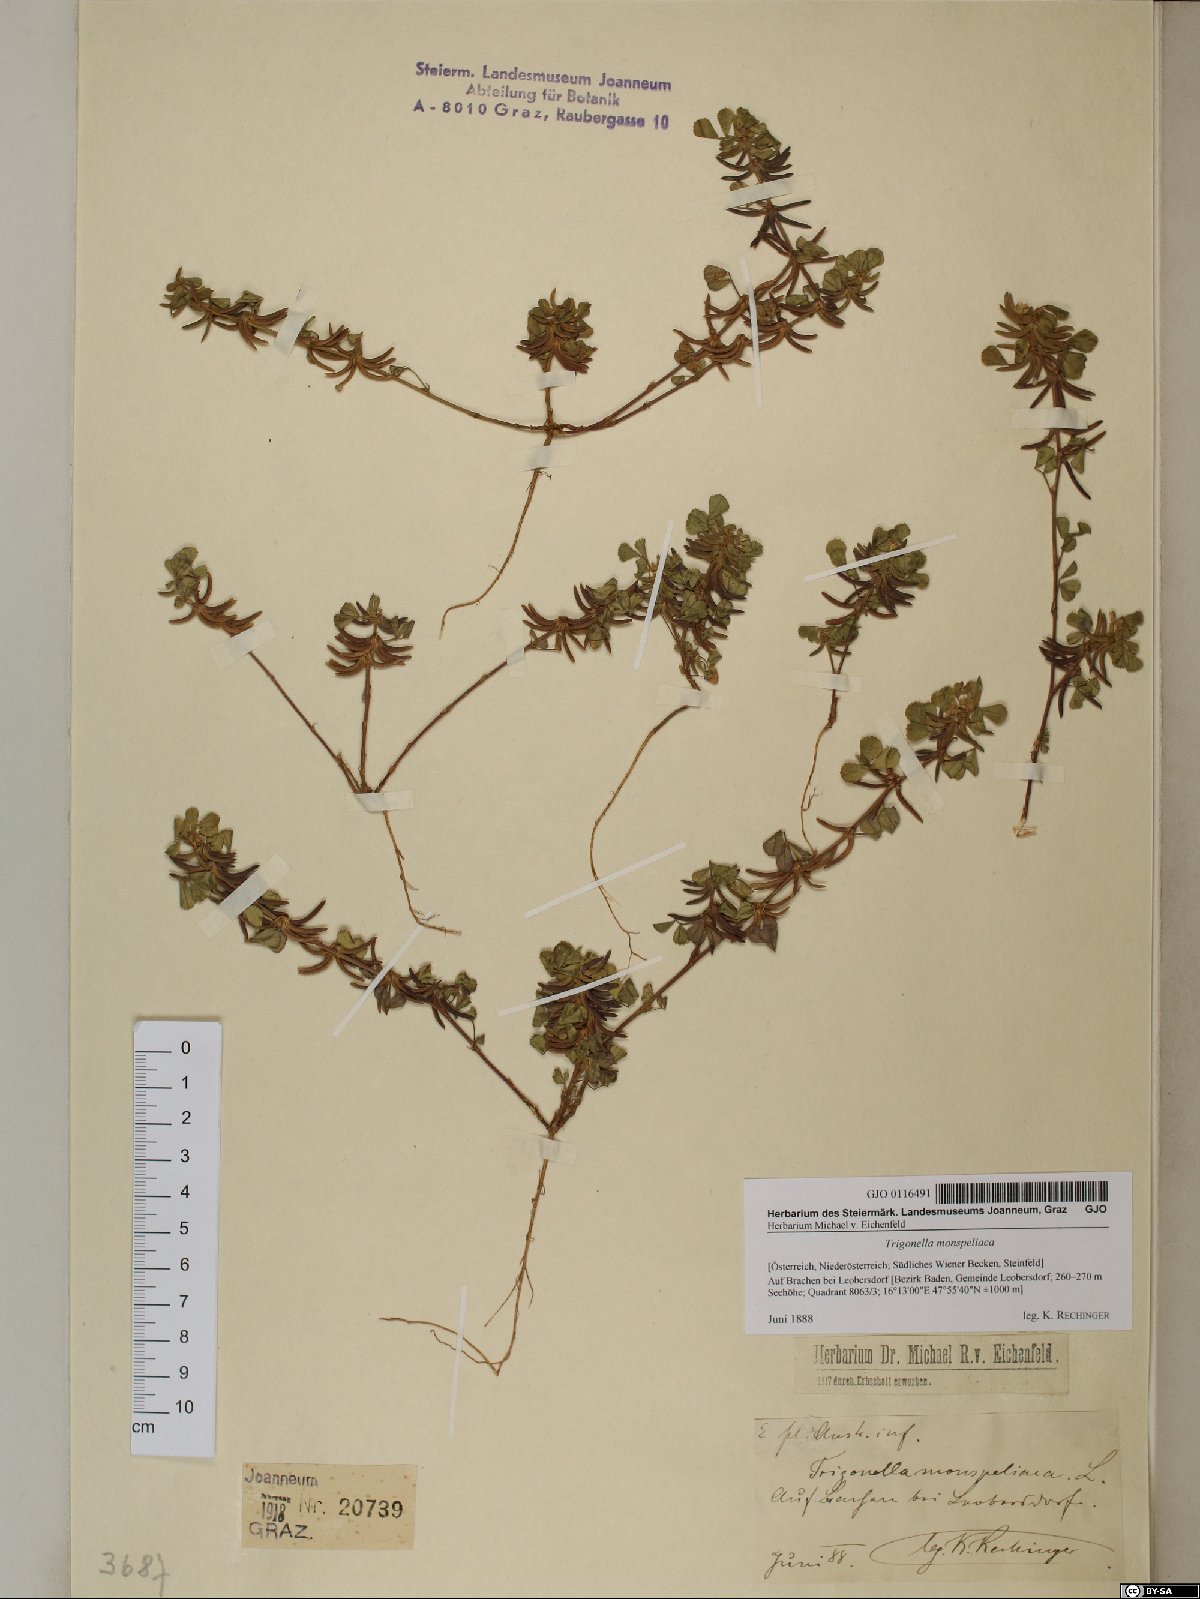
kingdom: Plantae
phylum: Tracheophyta
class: Magnoliopsida
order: Fabales
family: Fabaceae
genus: Medicago
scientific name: Medicago monspeliaca
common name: Hairy medick
